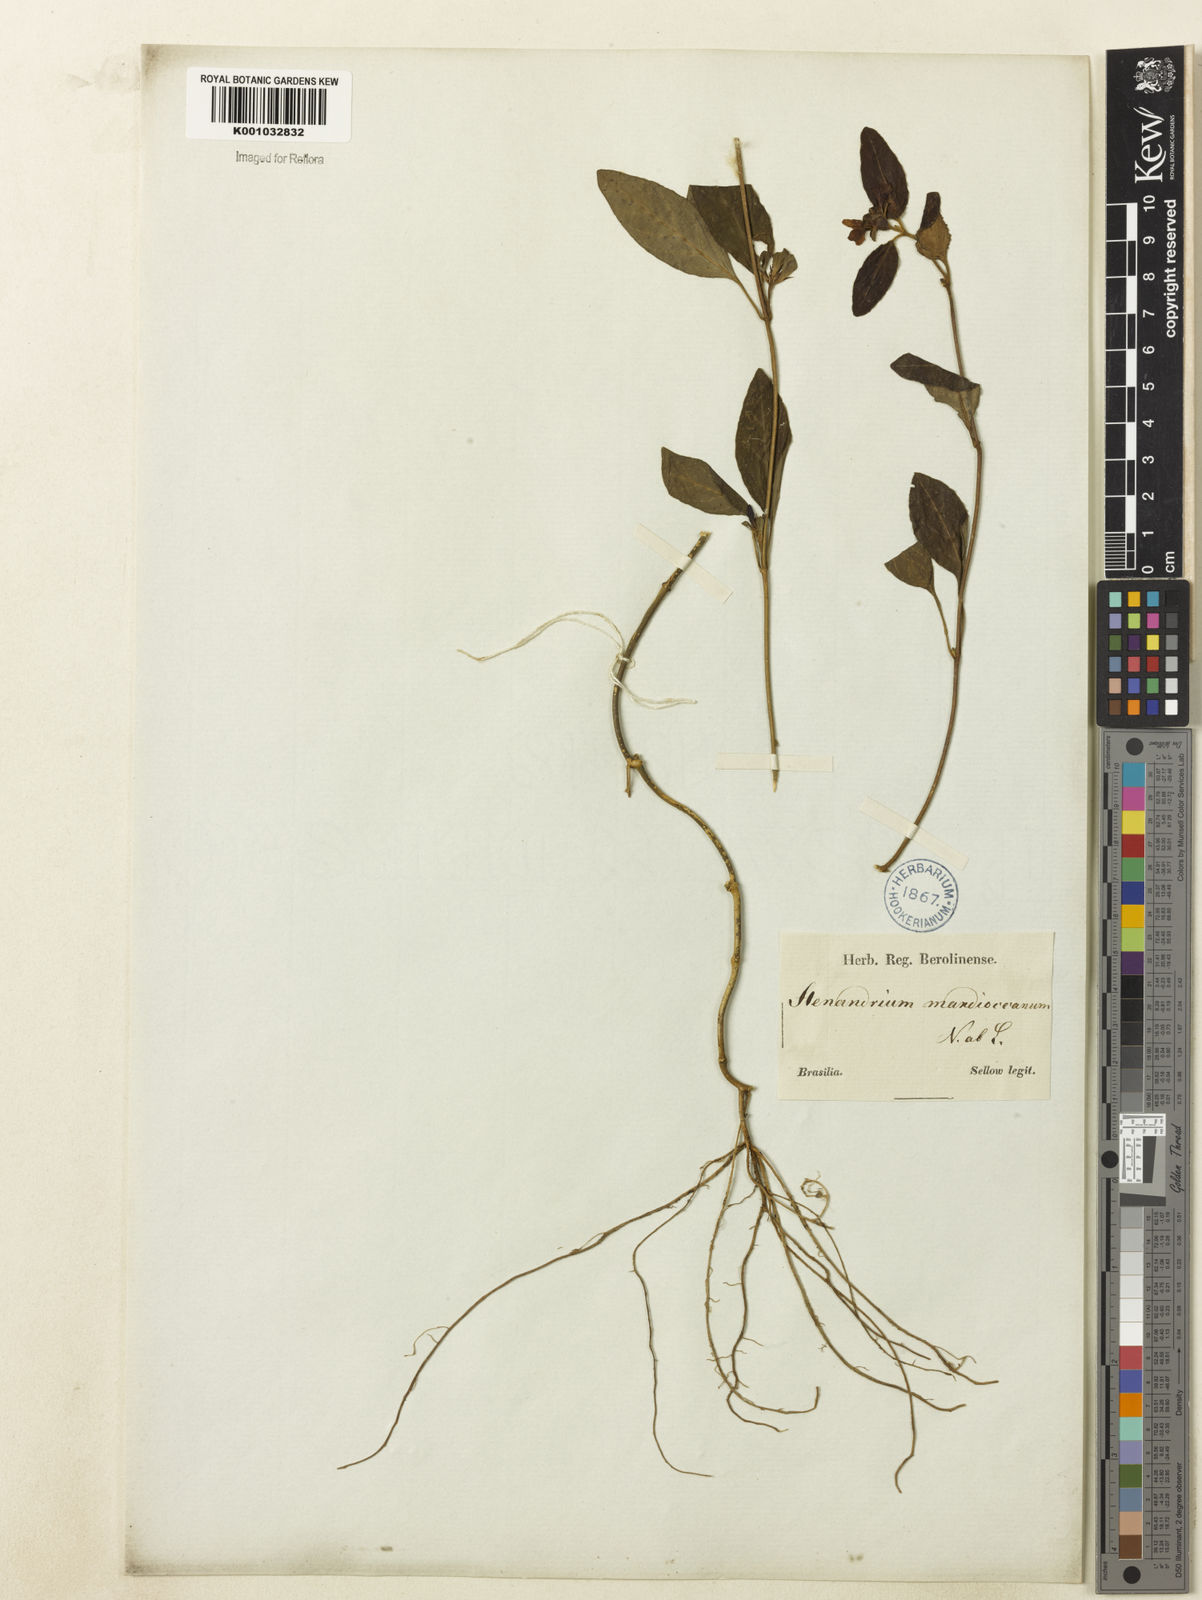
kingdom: Plantae
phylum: Tracheophyta
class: Magnoliopsida
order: Lamiales
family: Acanthaceae
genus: Stenandrium
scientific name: Stenandrium mandioccanum
